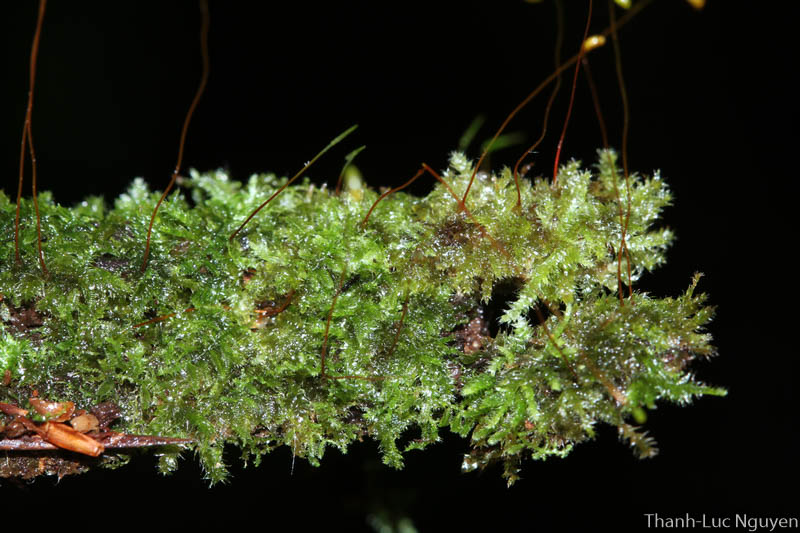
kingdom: Plantae
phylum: Bryophyta
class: Bryopsida
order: Hypnales
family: Hypnaceae
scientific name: Hypnaceae
